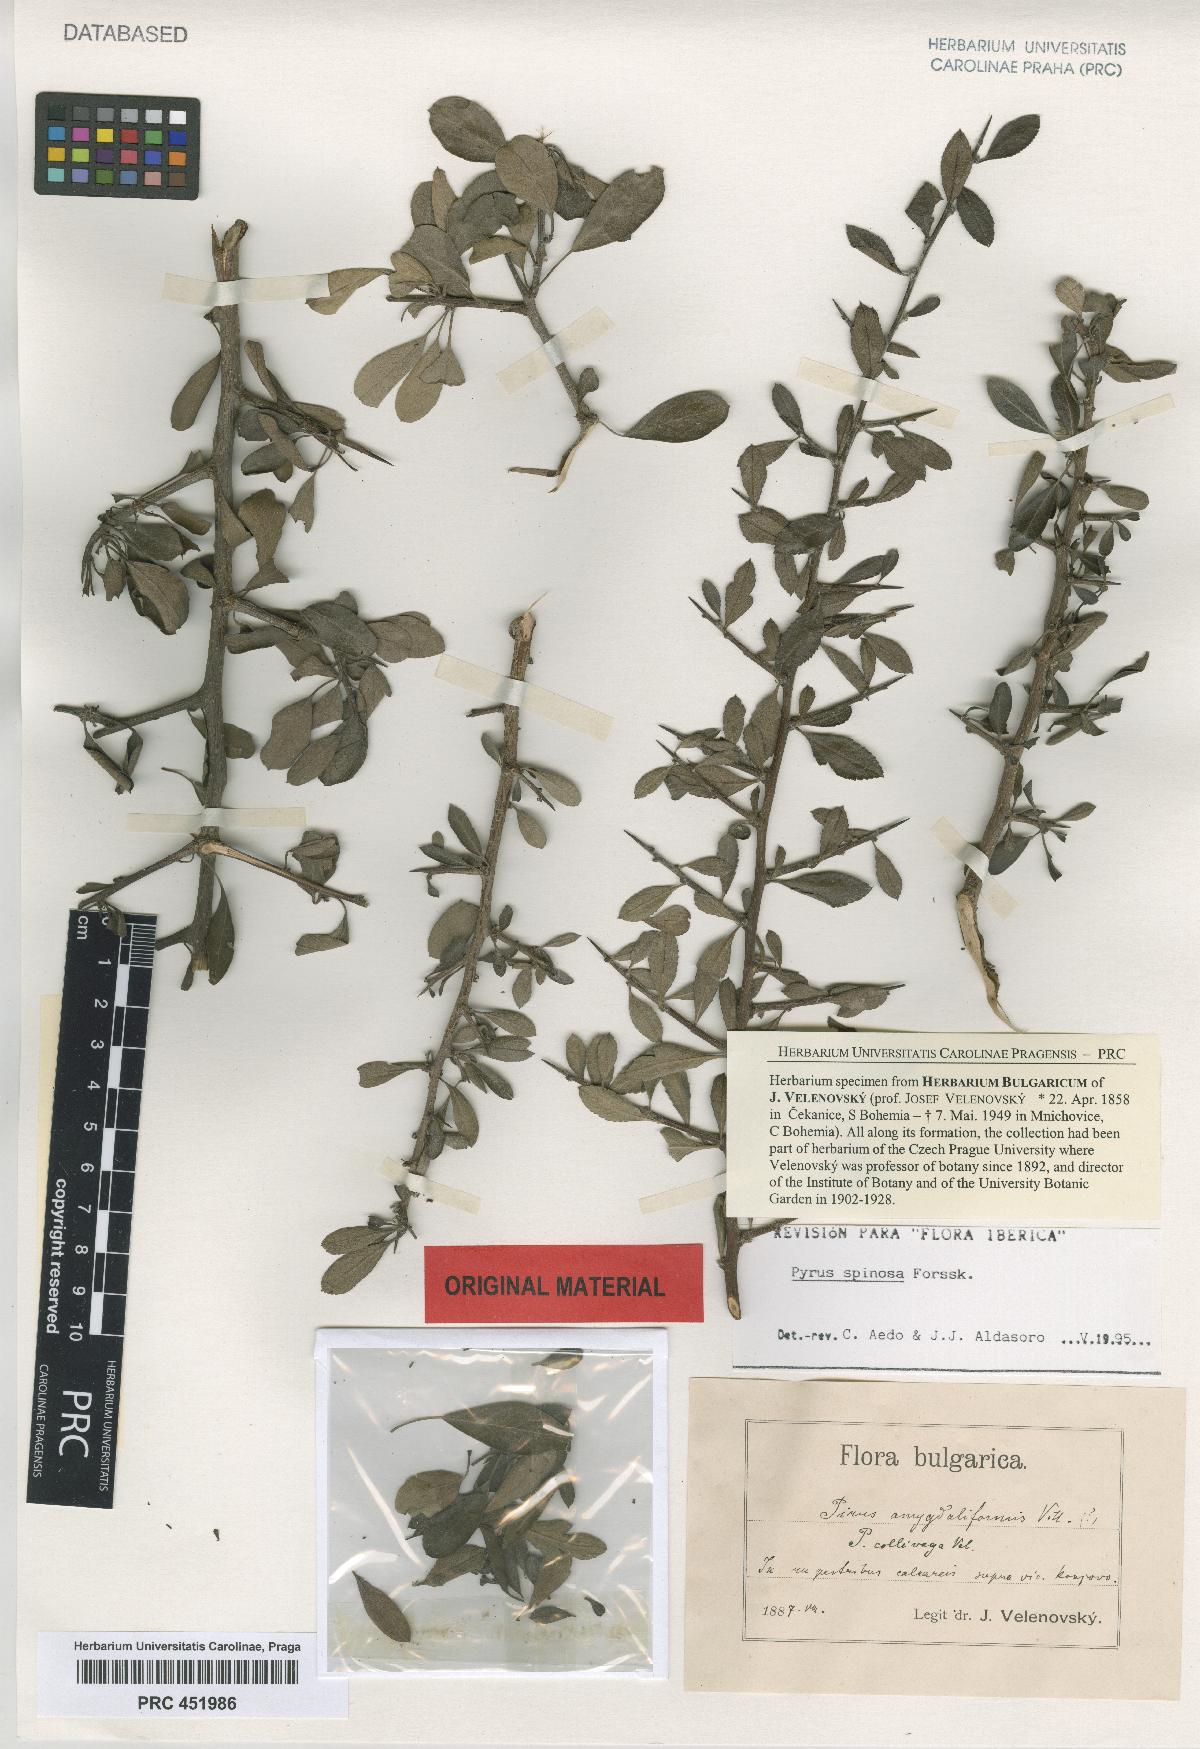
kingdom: Plantae
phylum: Tracheophyta
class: Magnoliopsida
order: Rosales
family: Rosaceae
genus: Pyrus
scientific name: Pyrus collivaga
